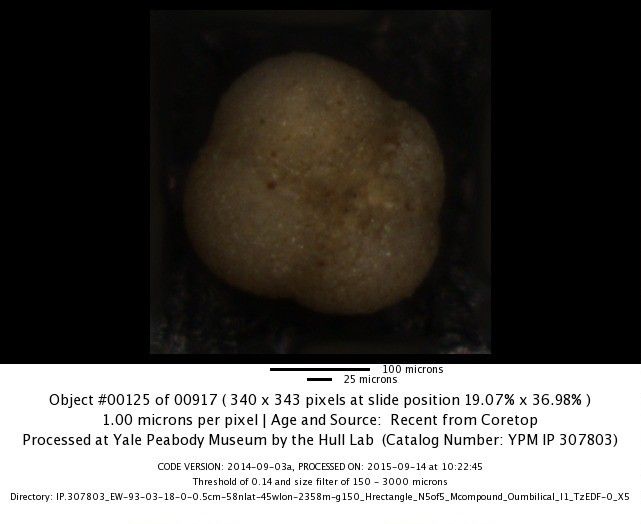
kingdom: Chromista
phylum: Foraminifera
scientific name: Foraminifera
